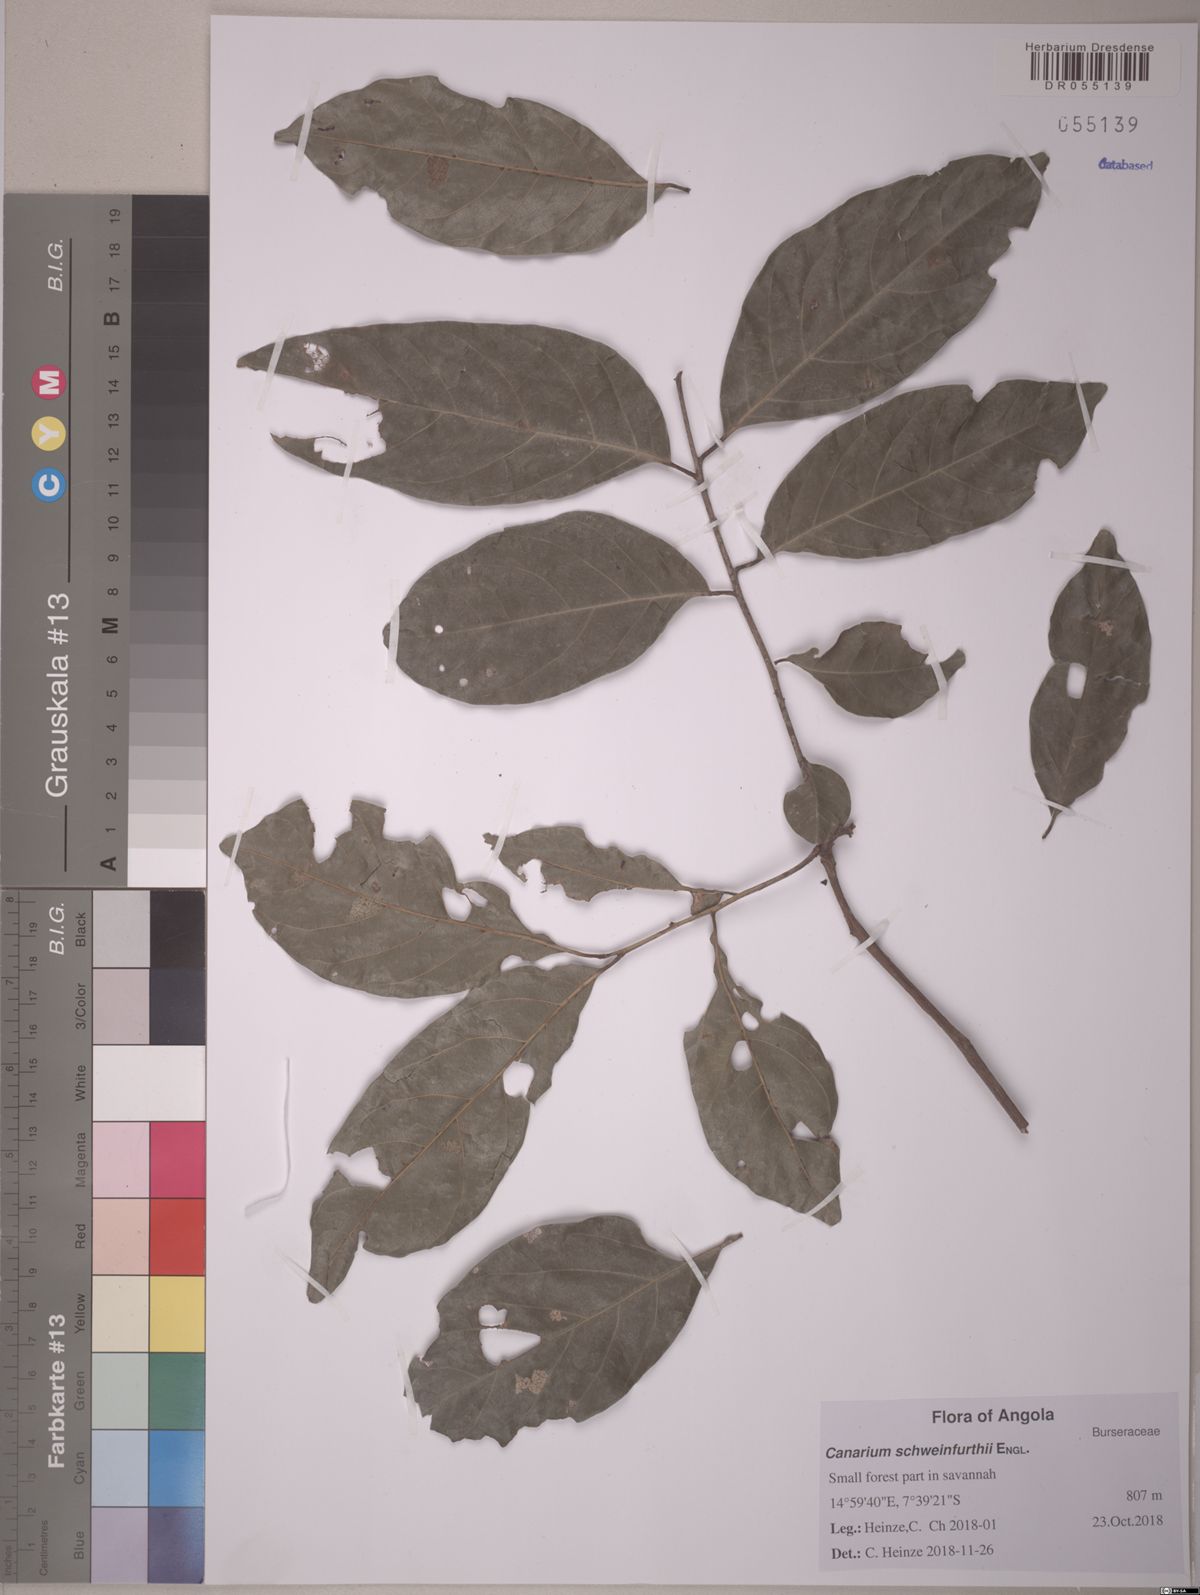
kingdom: Plantae
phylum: Tracheophyta
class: Magnoliopsida
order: Sapindales
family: Burseraceae
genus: Canarium
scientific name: Canarium schweinfurthii
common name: African elemi
